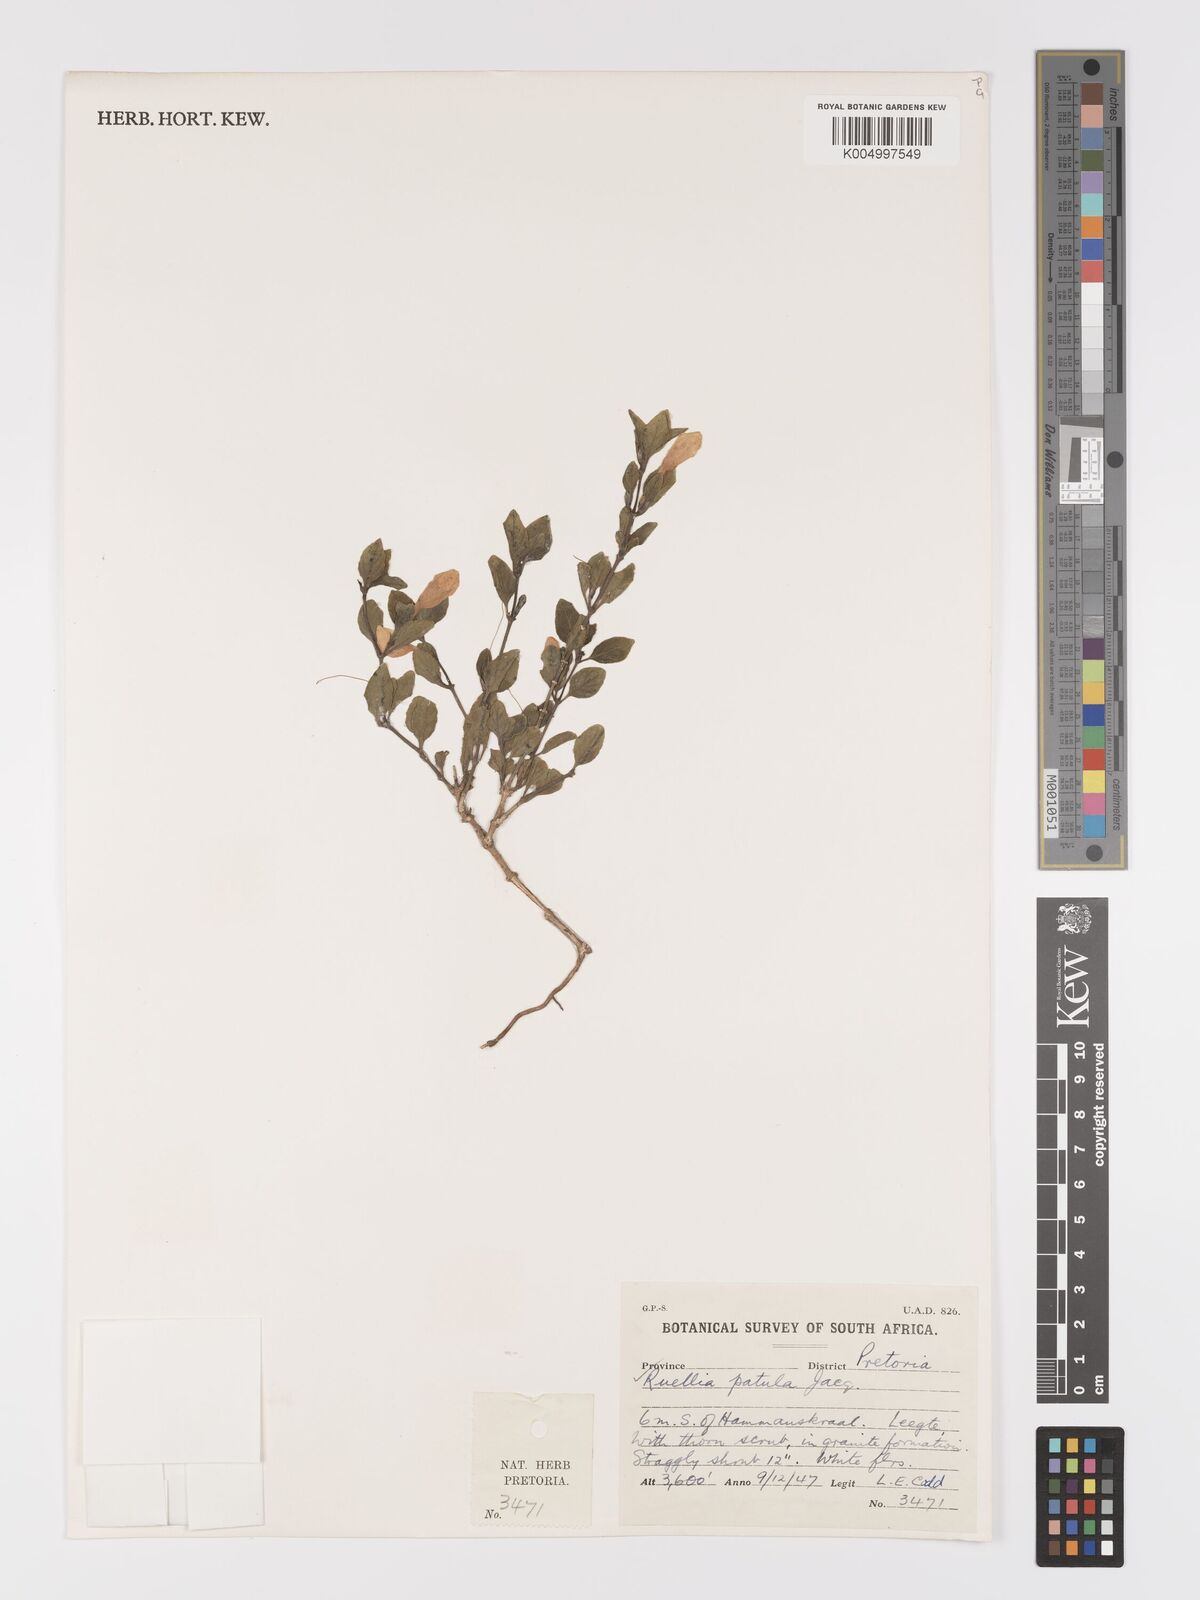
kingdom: Plantae
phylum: Tracheophyta
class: Magnoliopsida
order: Lamiales
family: Acanthaceae
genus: Ruellia
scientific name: Ruellia patula
